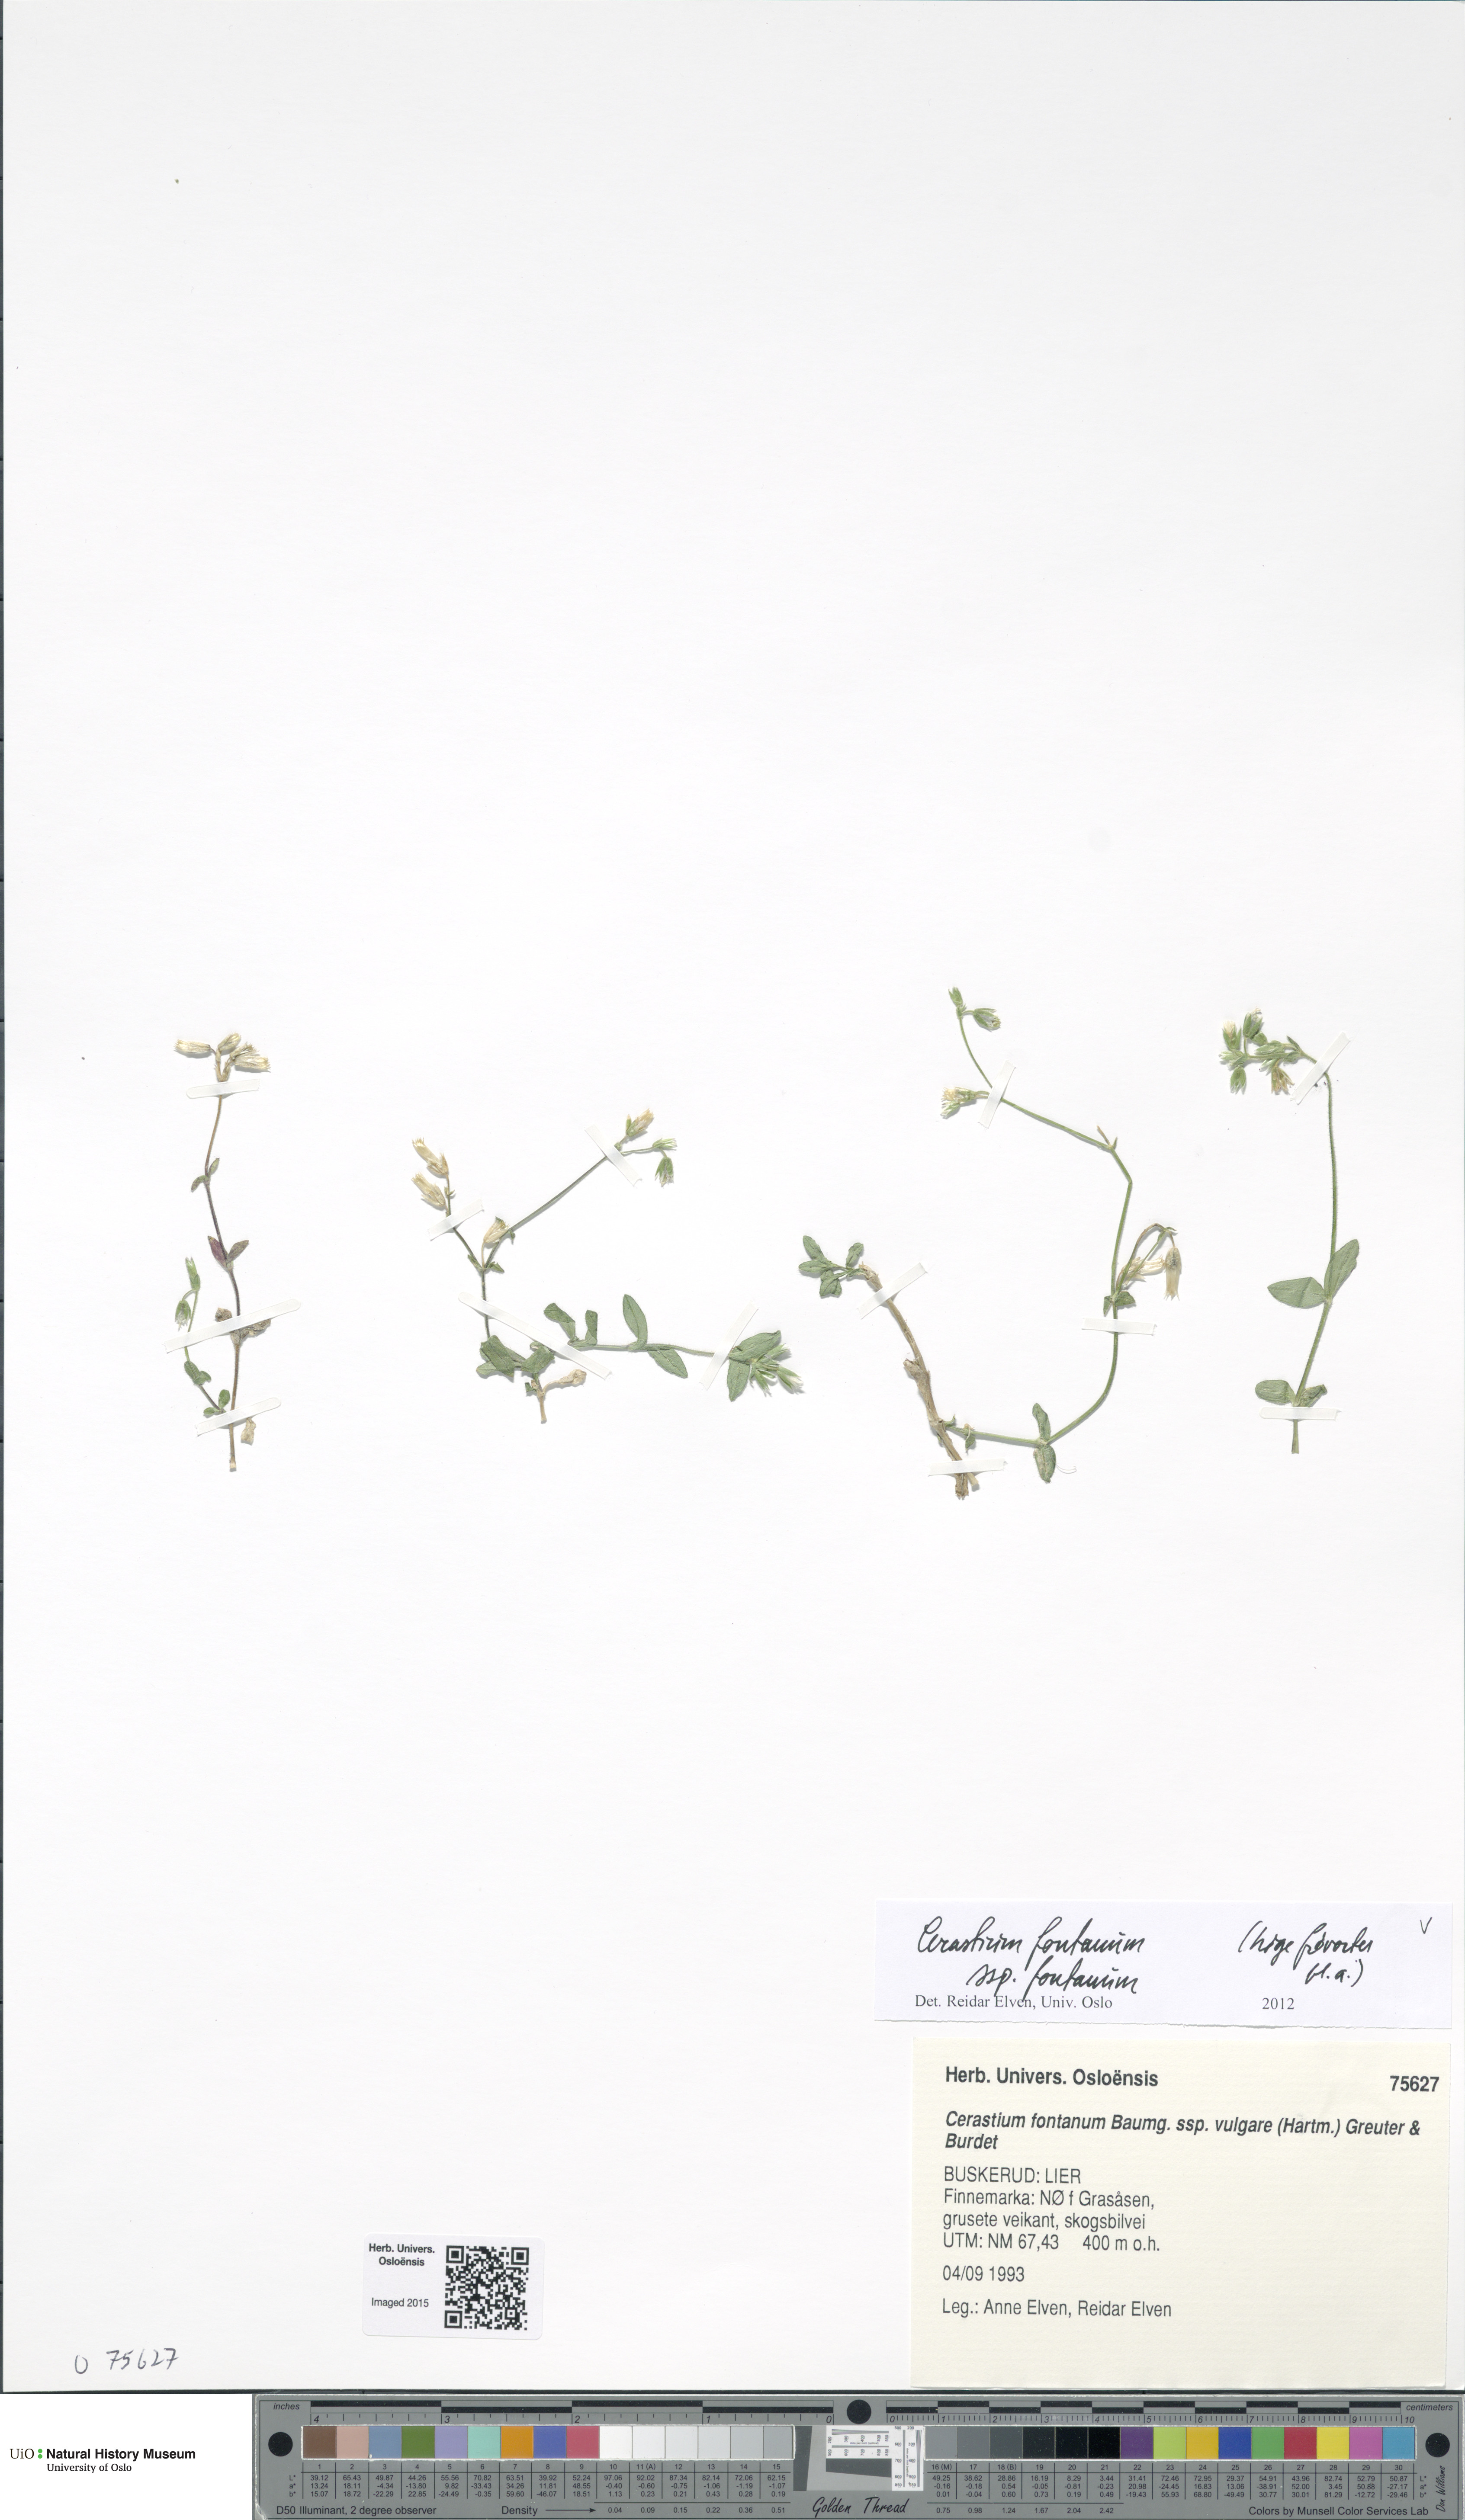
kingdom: Plantae
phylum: Tracheophyta
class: Magnoliopsida
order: Caryophyllales
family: Caryophyllaceae
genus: Cerastium
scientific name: Cerastium fontanum
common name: Common mouse-ear
